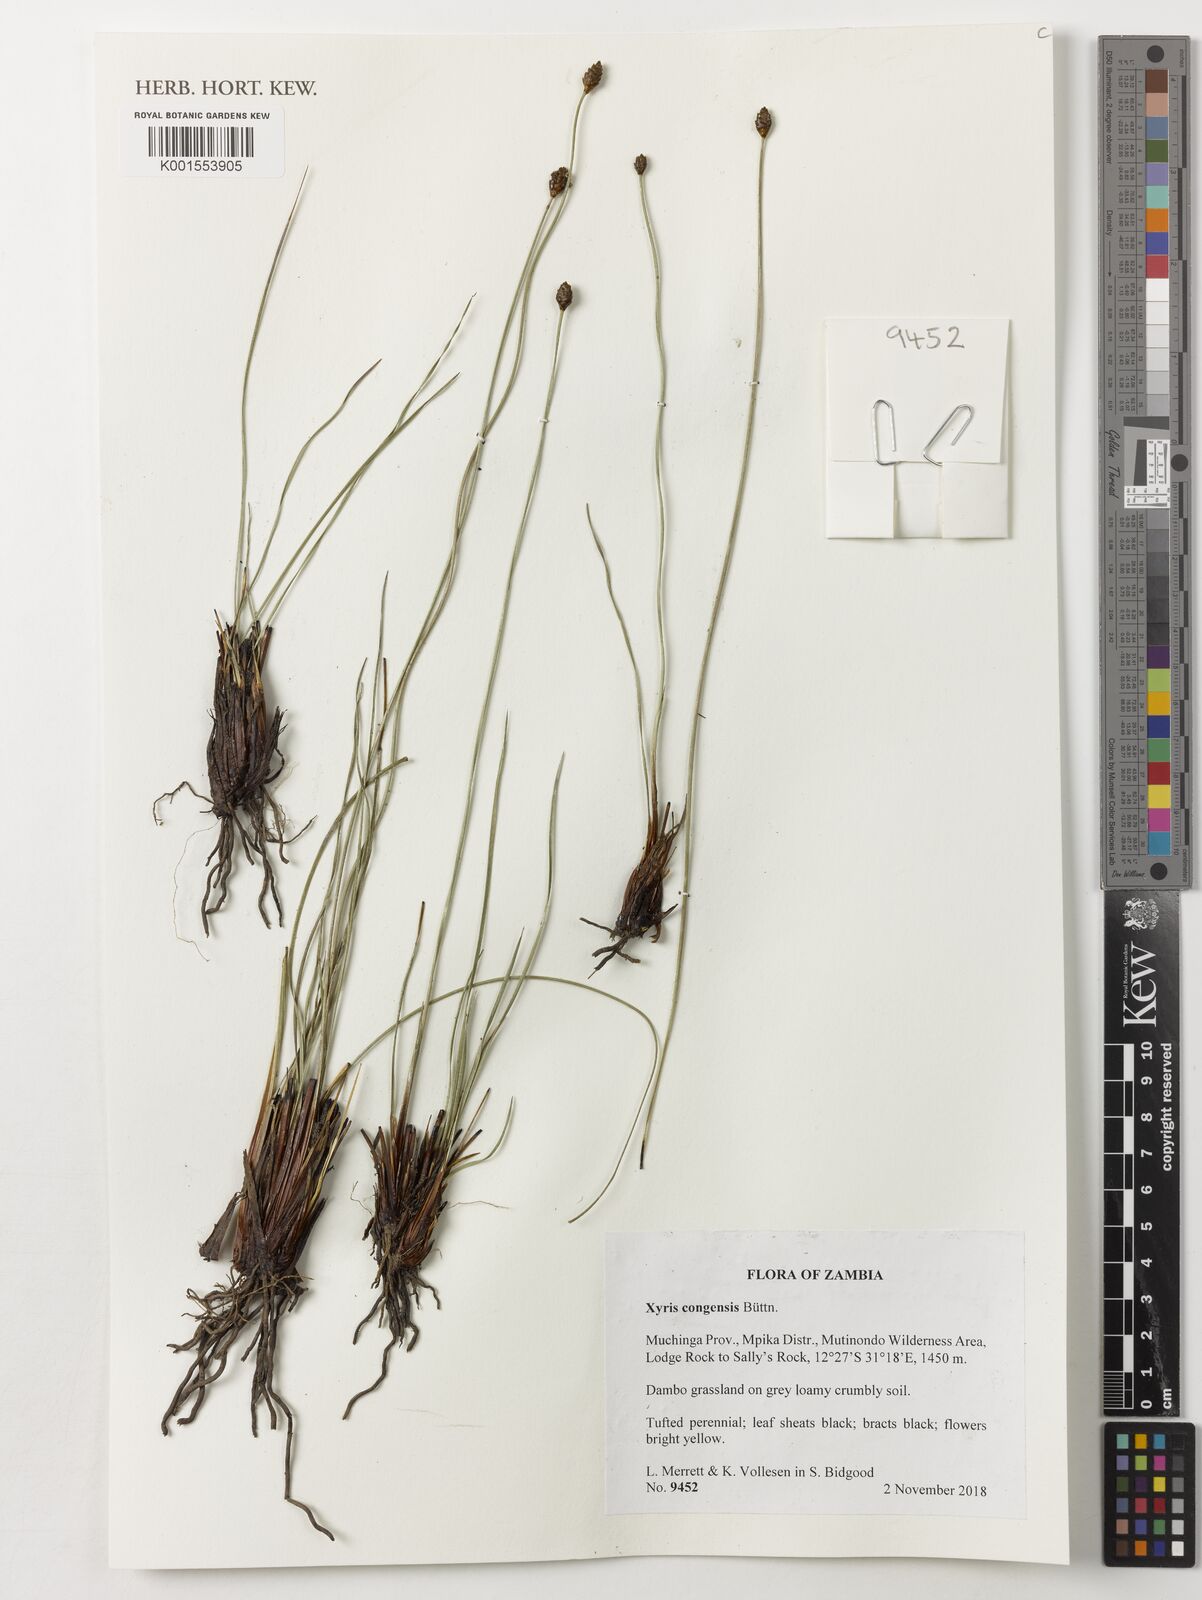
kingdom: Plantae
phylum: Tracheophyta
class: Liliopsida
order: Poales
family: Xyridaceae
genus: Xyris
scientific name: Xyris congensis
